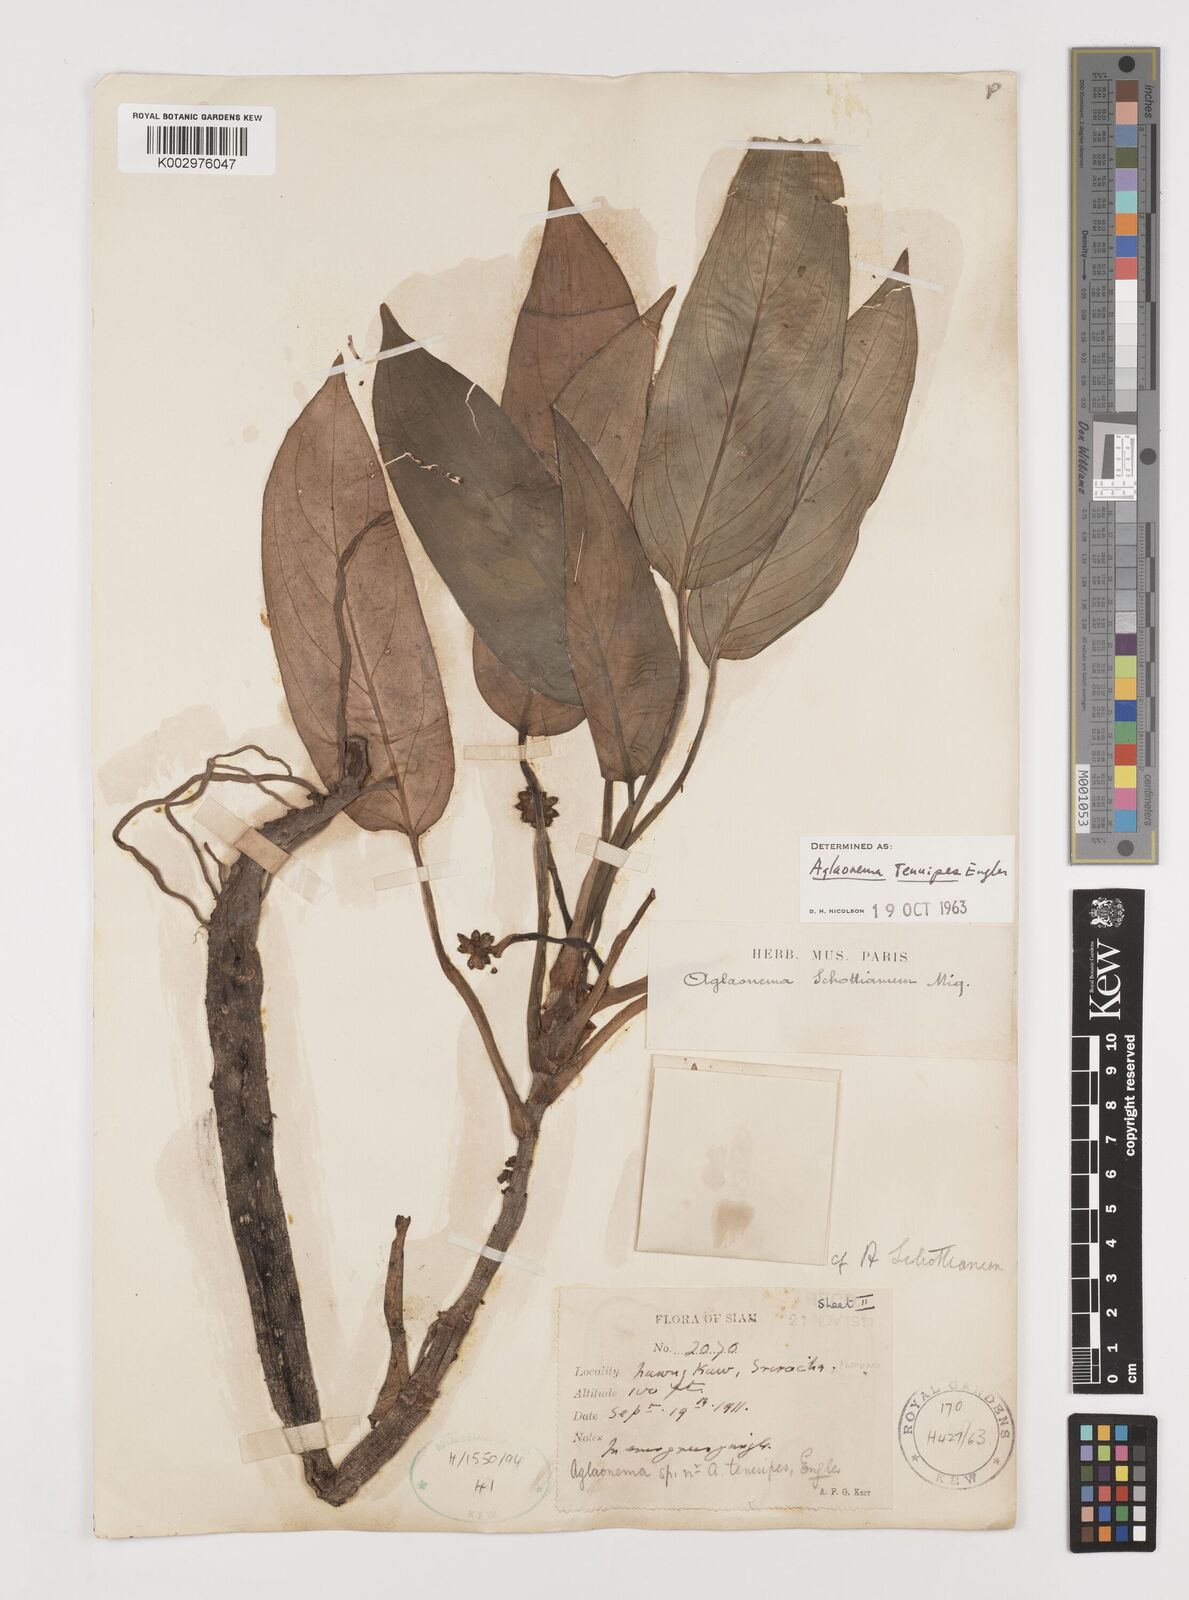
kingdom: Plantae
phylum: Tracheophyta
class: Liliopsida
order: Alismatales
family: Araceae
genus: Aglaonema
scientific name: Aglaonema simplex
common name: Malayan-sword
